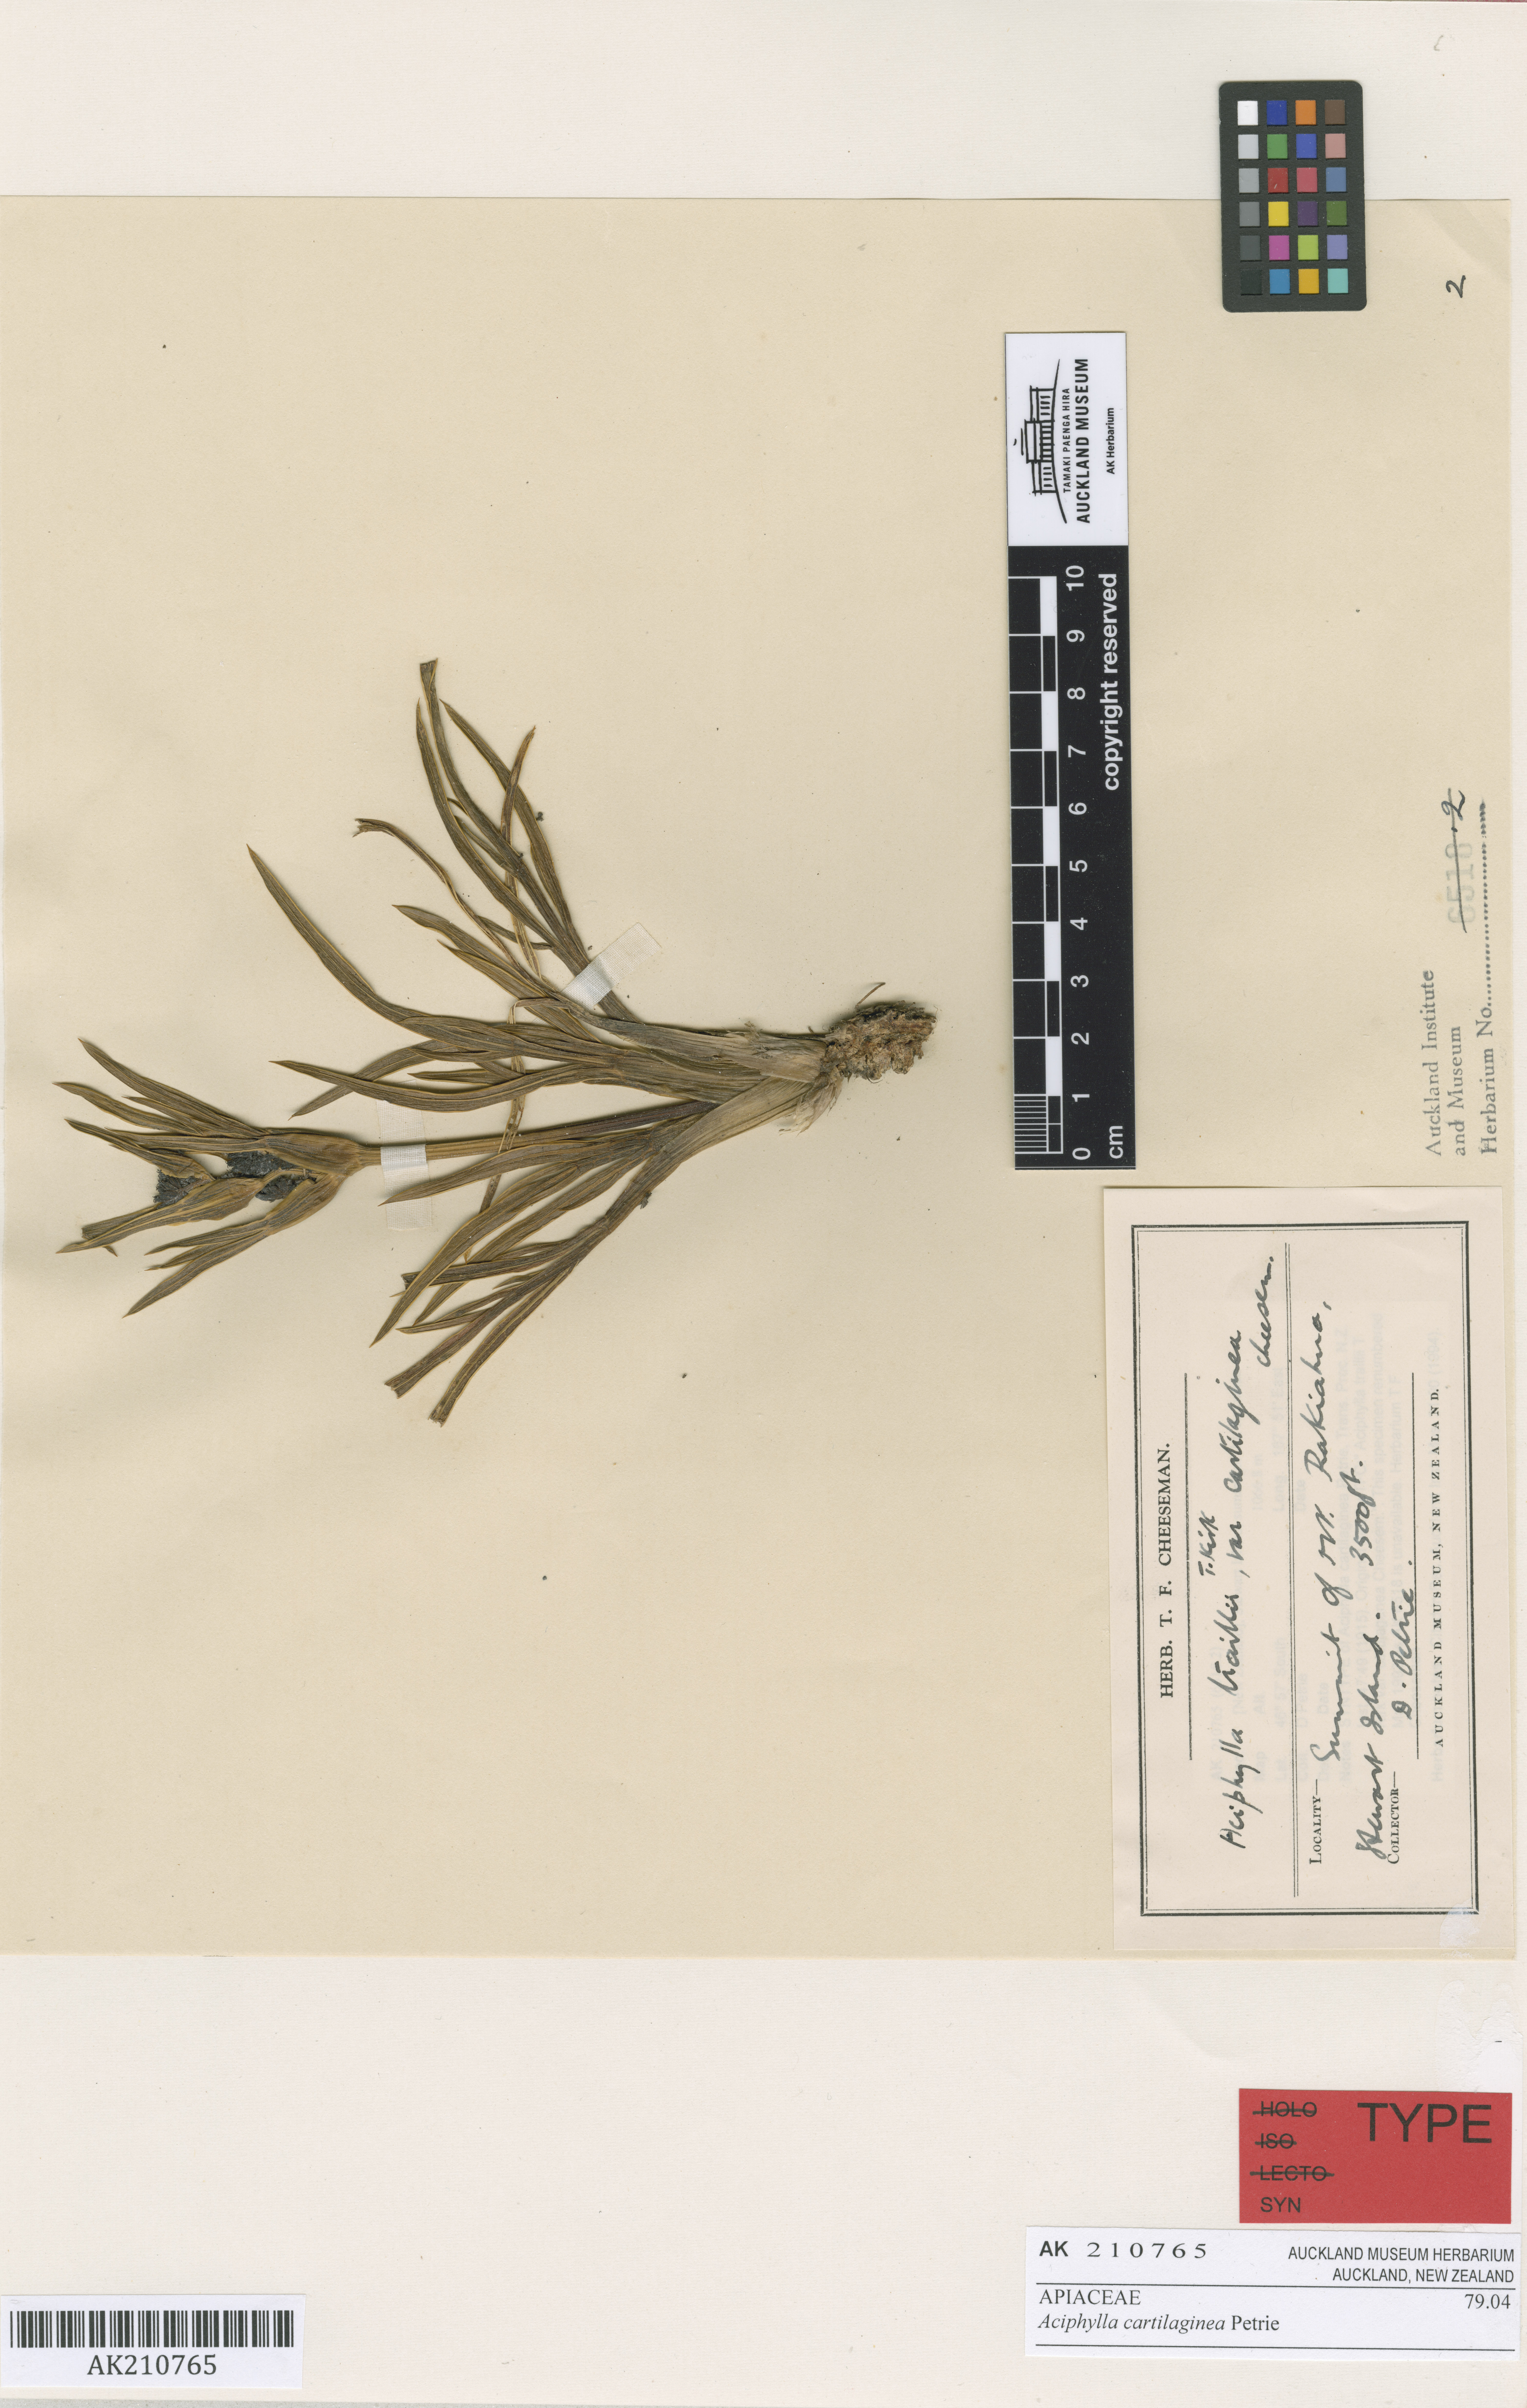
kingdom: Plantae
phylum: Tracheophyta
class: Magnoliopsida
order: Apiales
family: Apiaceae
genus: Aciphylla
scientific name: Aciphylla cartilaginea
